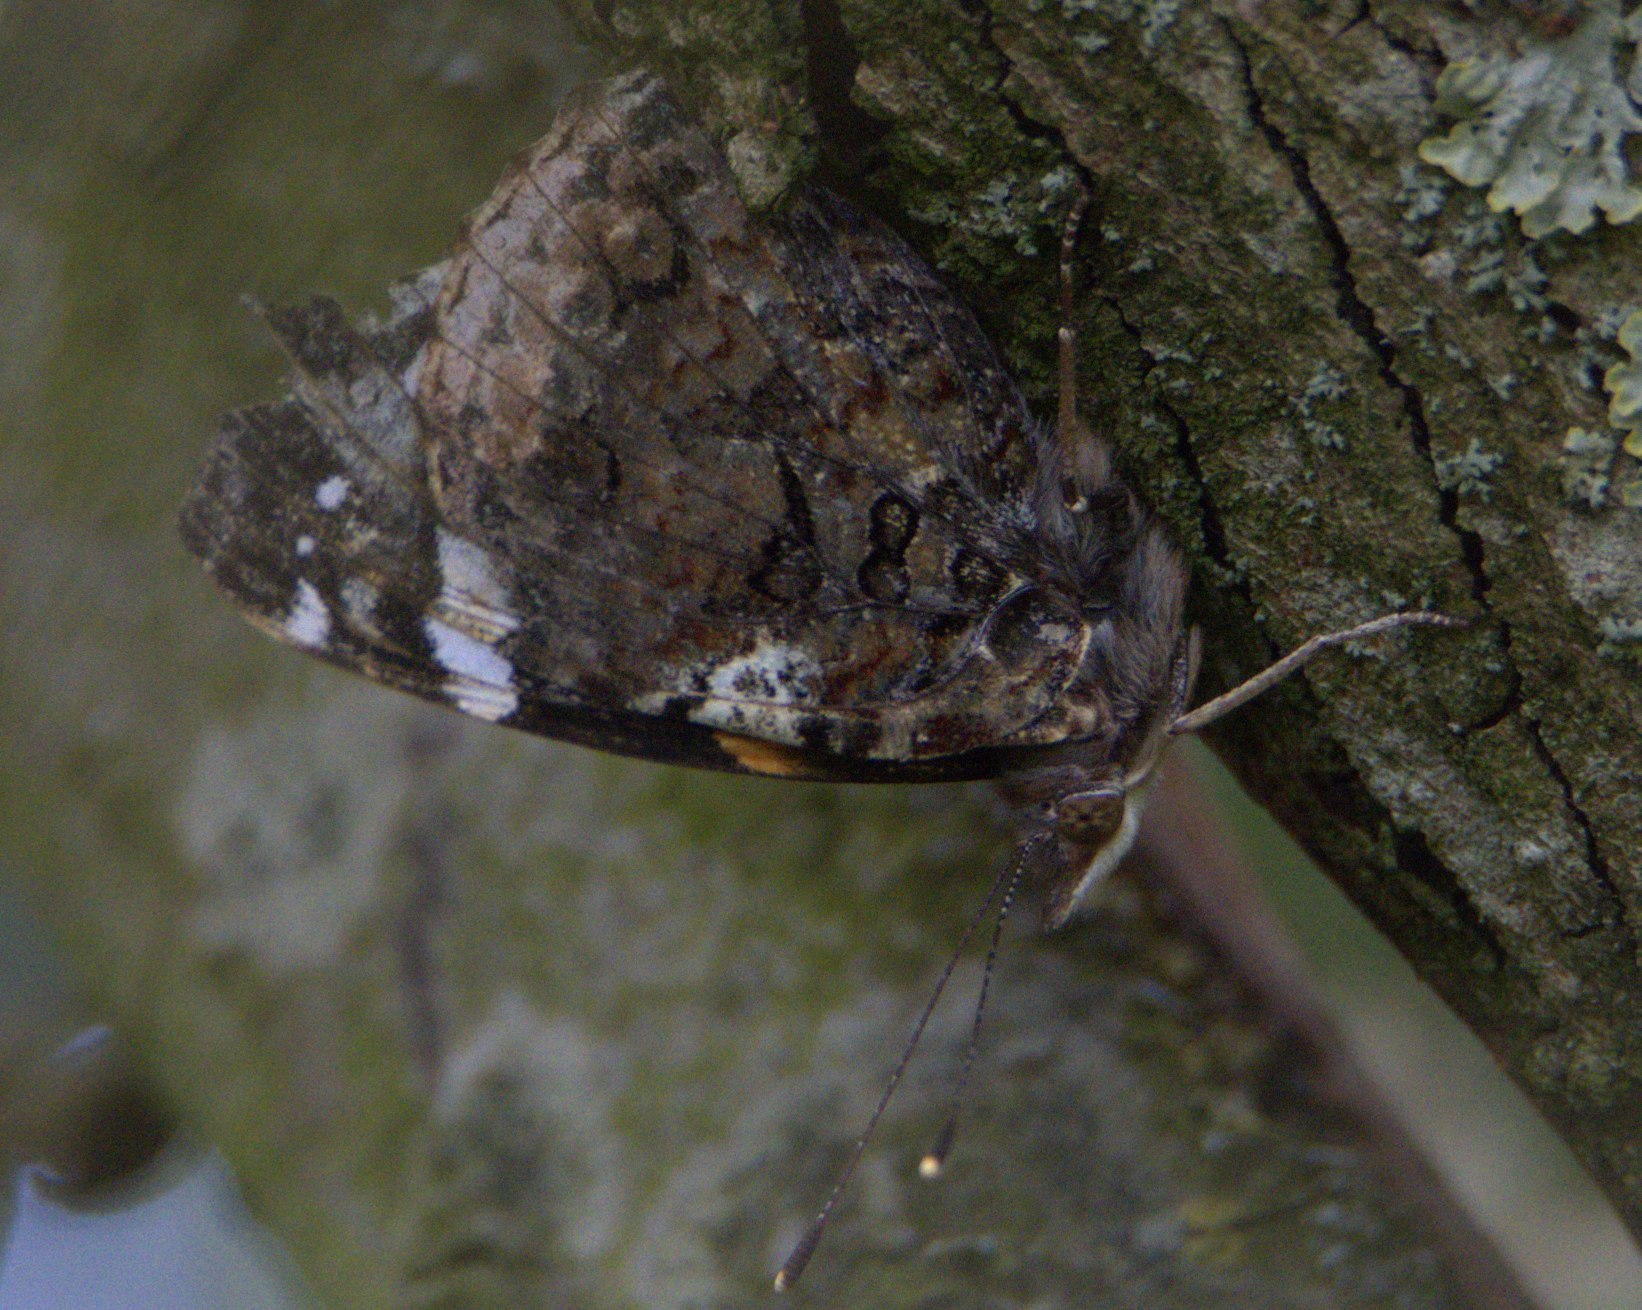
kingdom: Animalia
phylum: Arthropoda
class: Insecta
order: Lepidoptera
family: Nymphalidae
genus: Vanessa
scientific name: Vanessa atalanta
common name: Admiral
